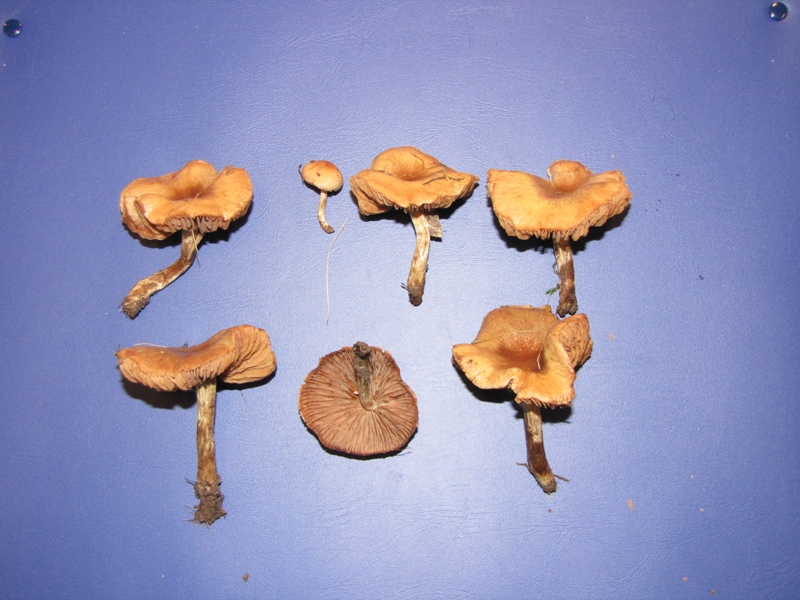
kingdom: Fungi
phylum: Basidiomycota
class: Agaricomycetes
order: Agaricales
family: Hymenogastraceae
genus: Hebeloma
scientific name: Hebeloma mesophaeum
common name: lerbrun tåreblad
